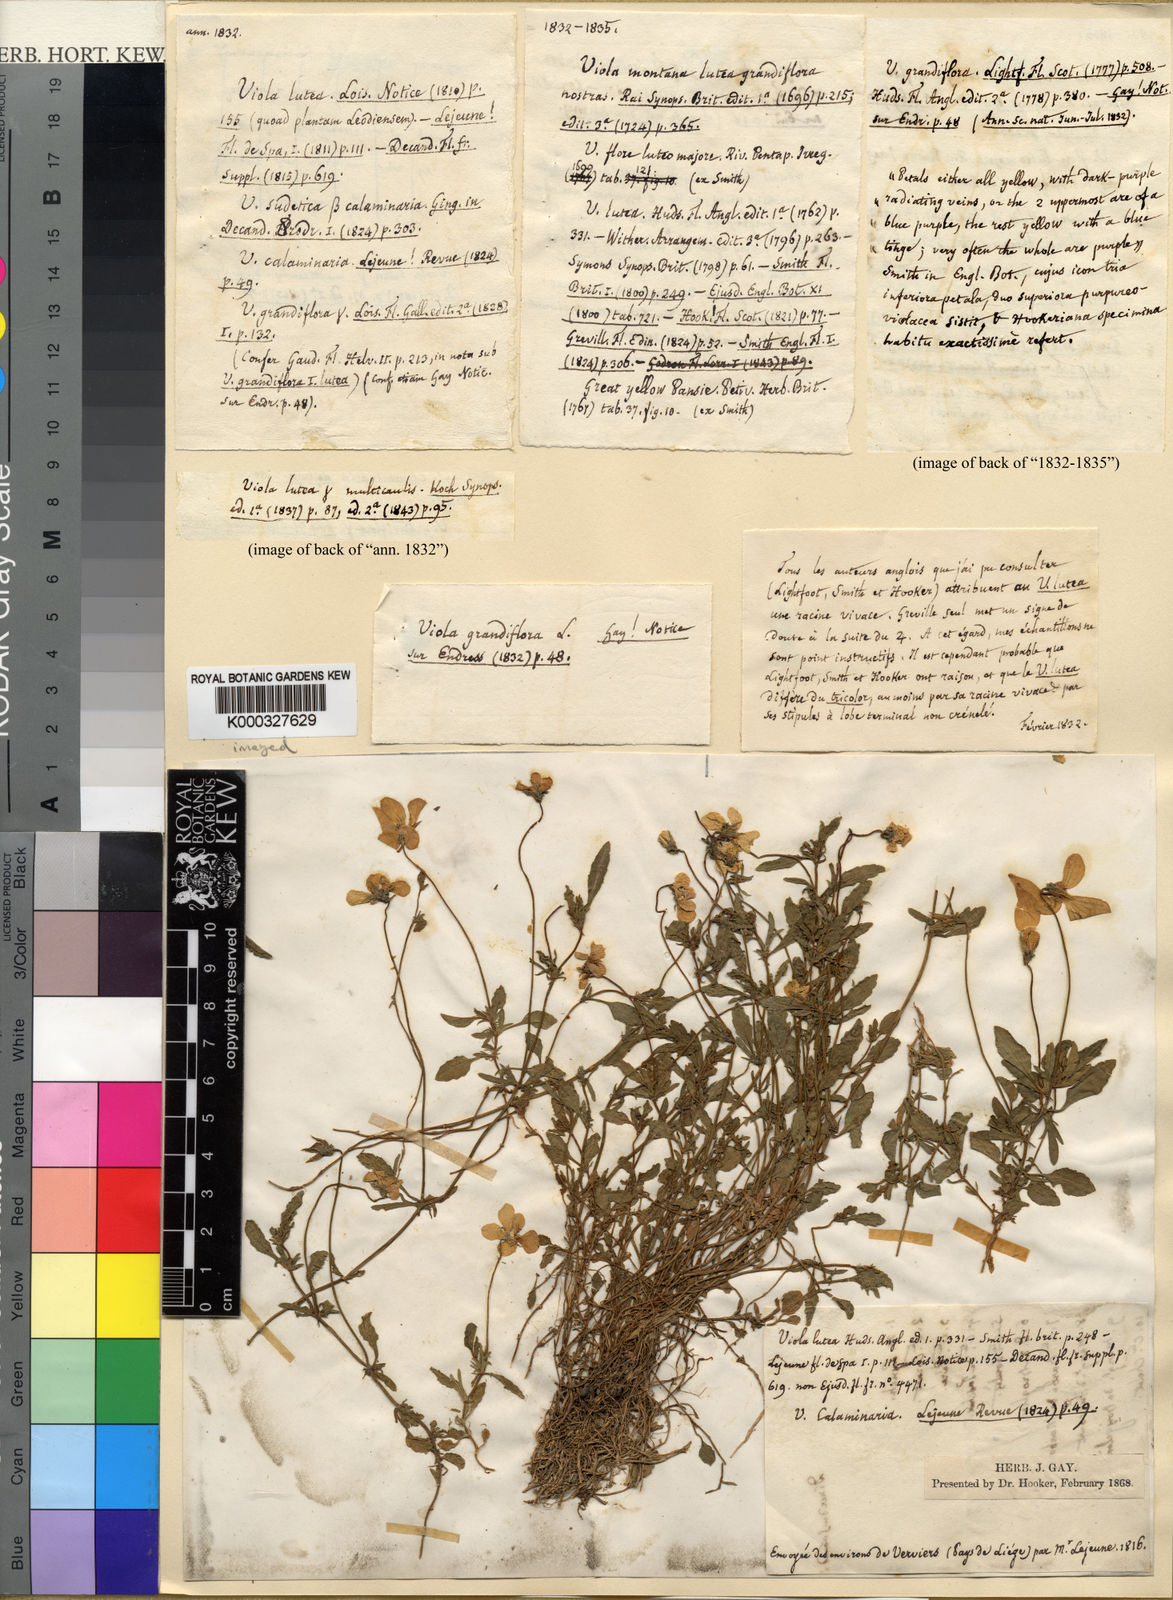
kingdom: Plantae
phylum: Tracheophyta
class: Magnoliopsida
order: Malpighiales
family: Violaceae
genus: Viola
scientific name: Viola lutea
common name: Mountain pansy
